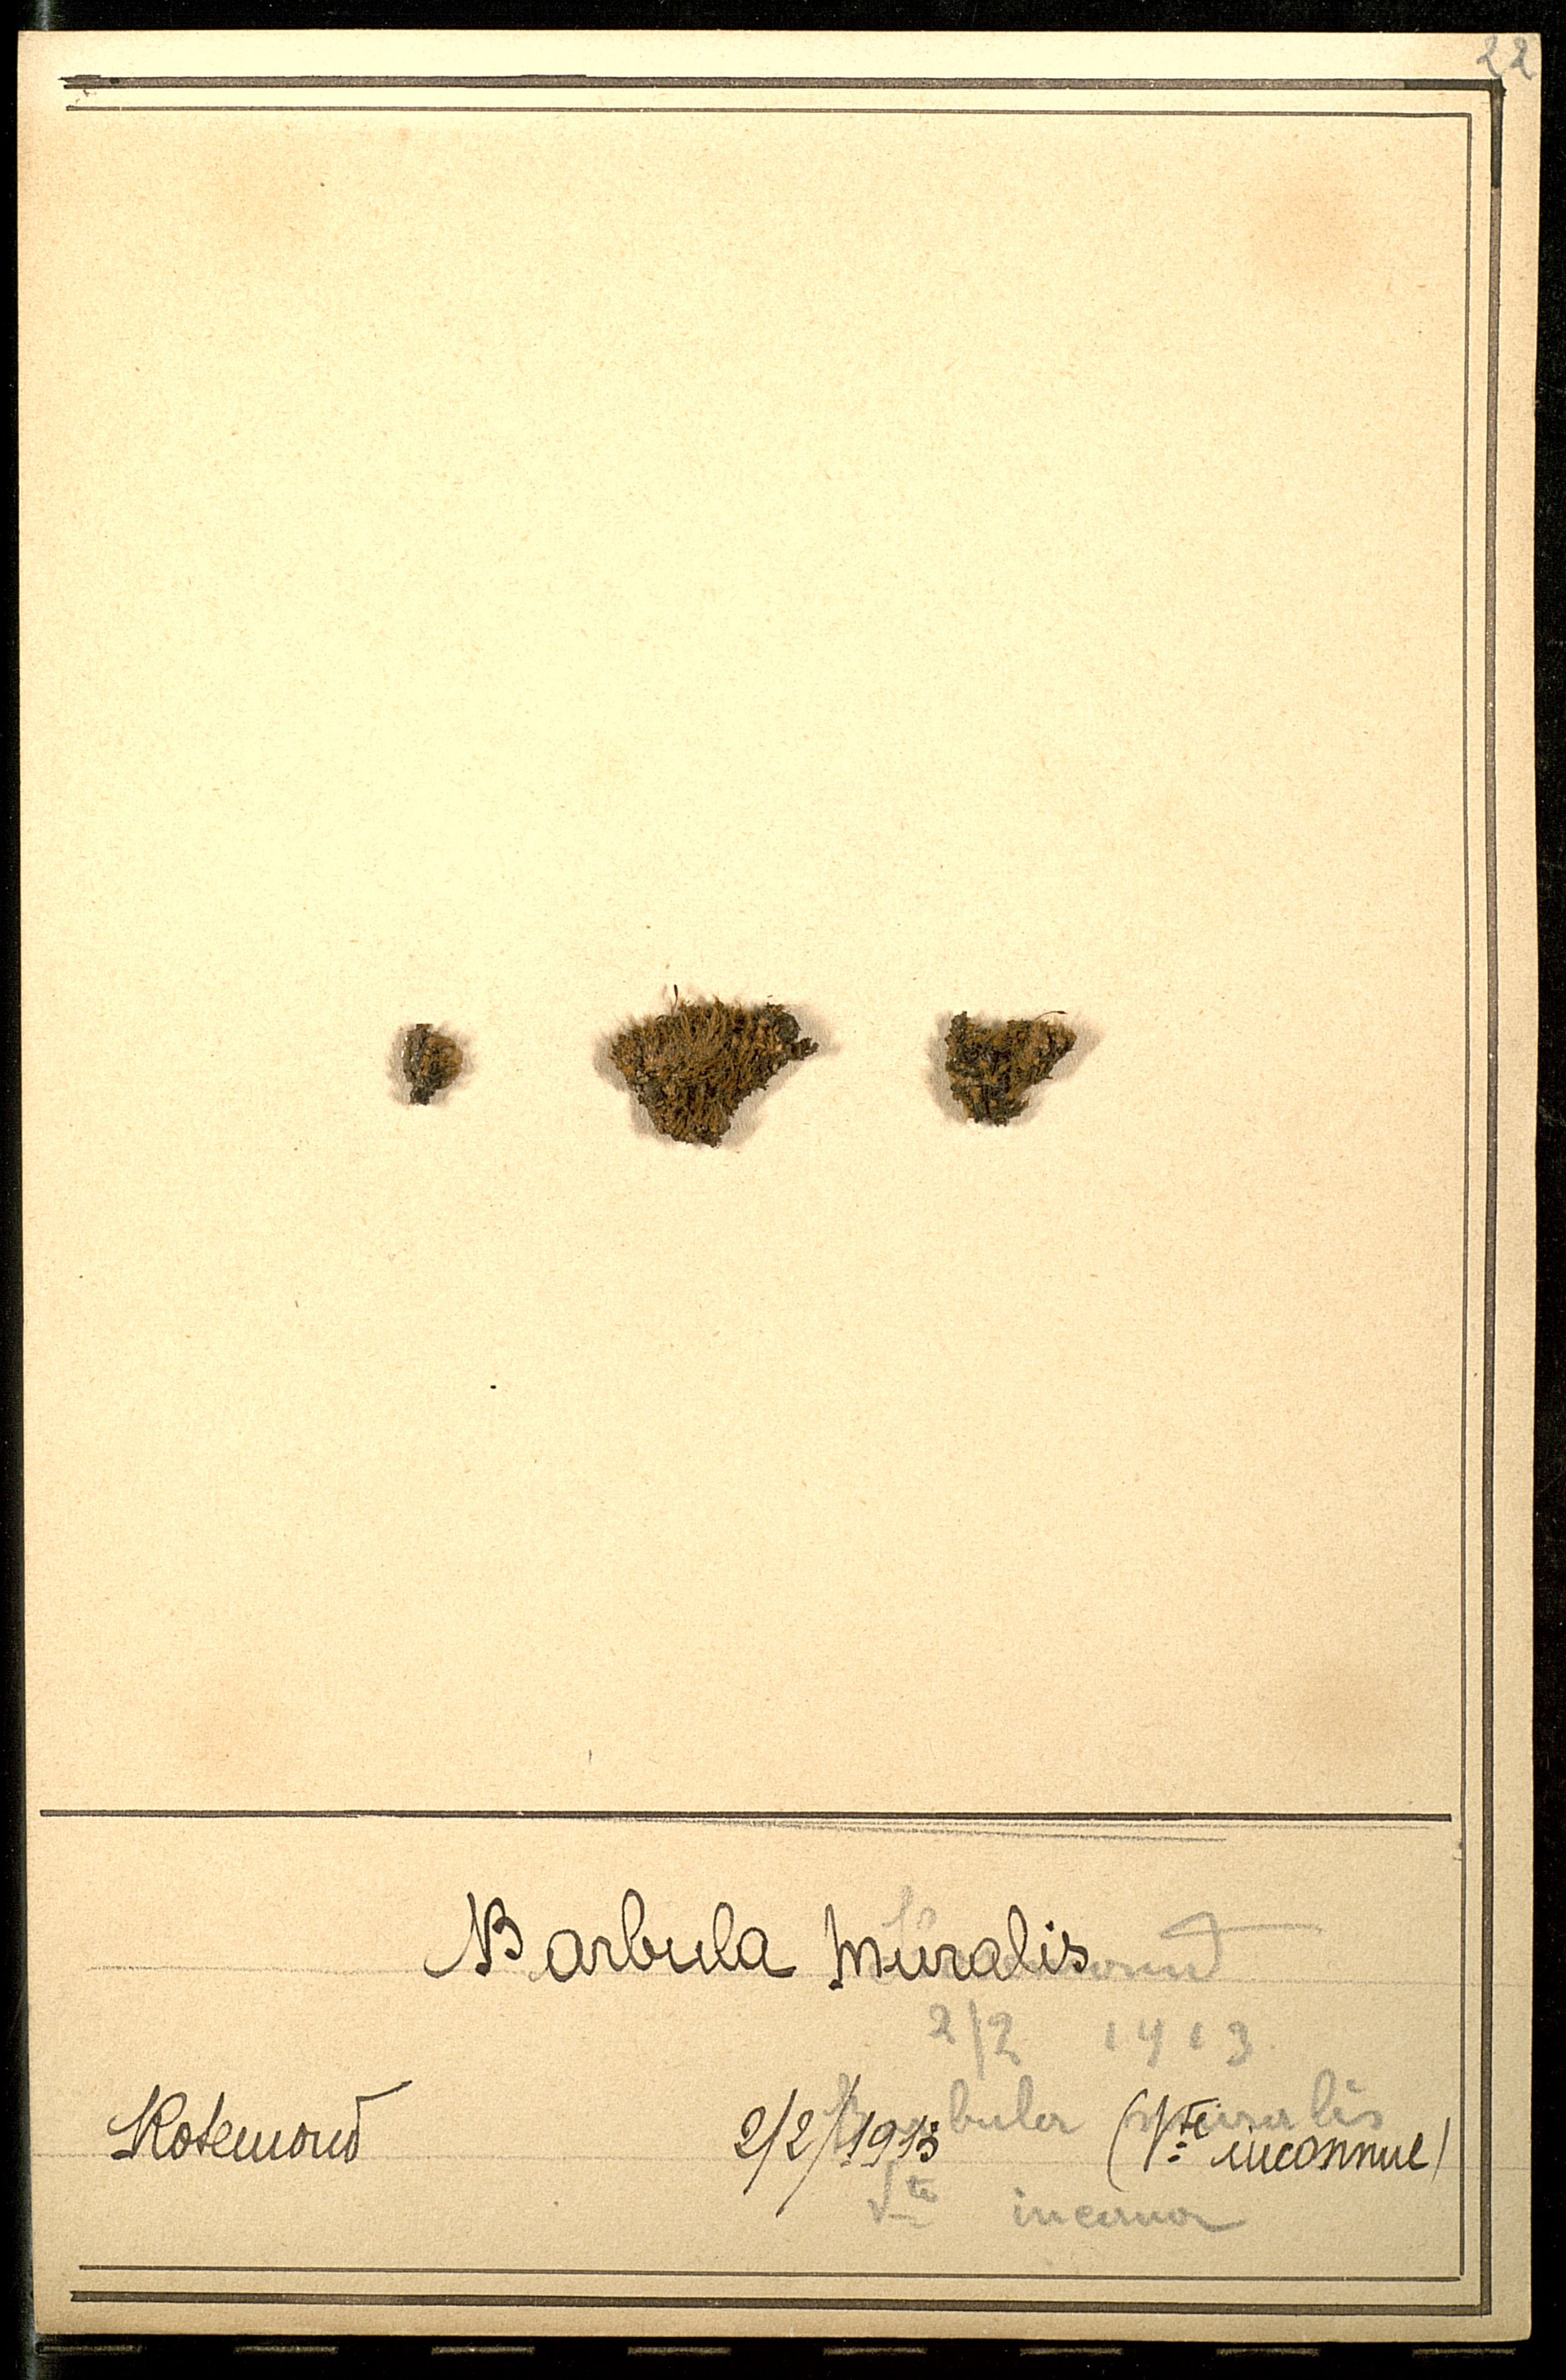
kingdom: Plantae
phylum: Bryophyta
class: Bryopsida
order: Pottiales
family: Pottiaceae
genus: Tortula
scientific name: Tortula muralis
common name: Wall screw-moss
